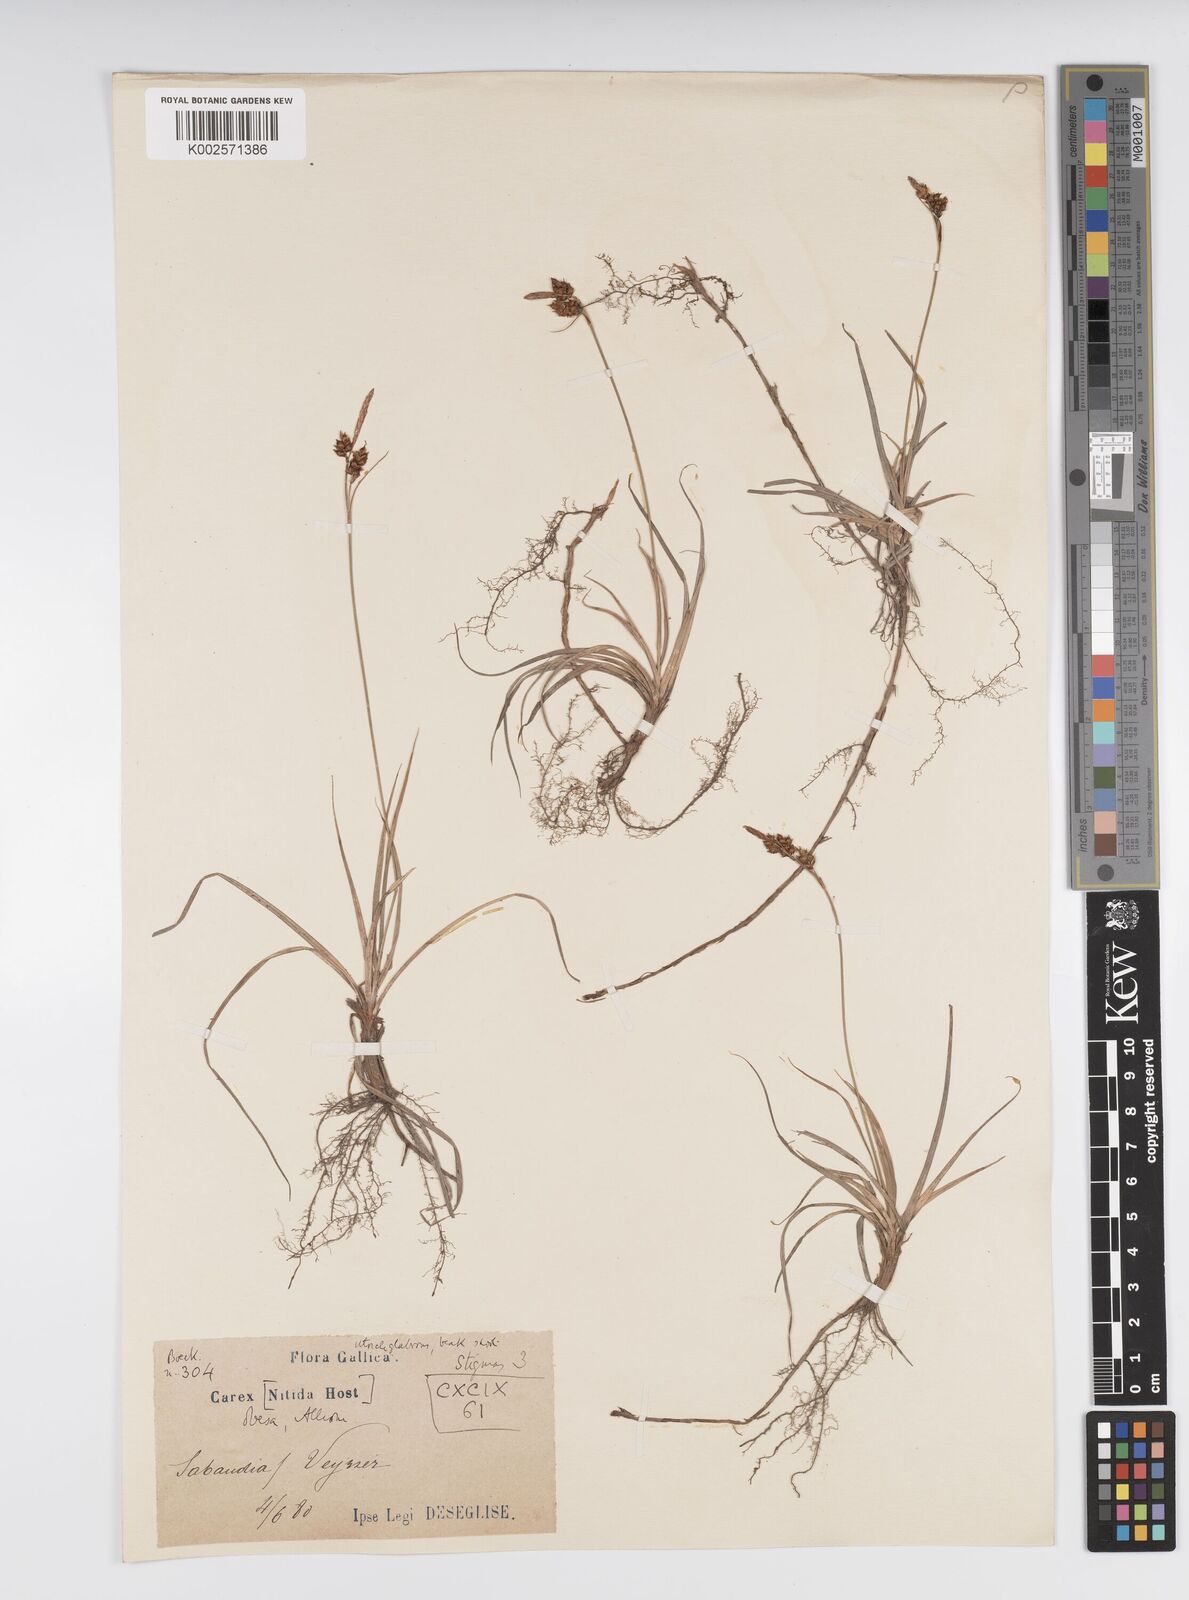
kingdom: Plantae
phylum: Tracheophyta
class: Liliopsida
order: Poales
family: Cyperaceae
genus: Carex
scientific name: Carex liparocarpos
